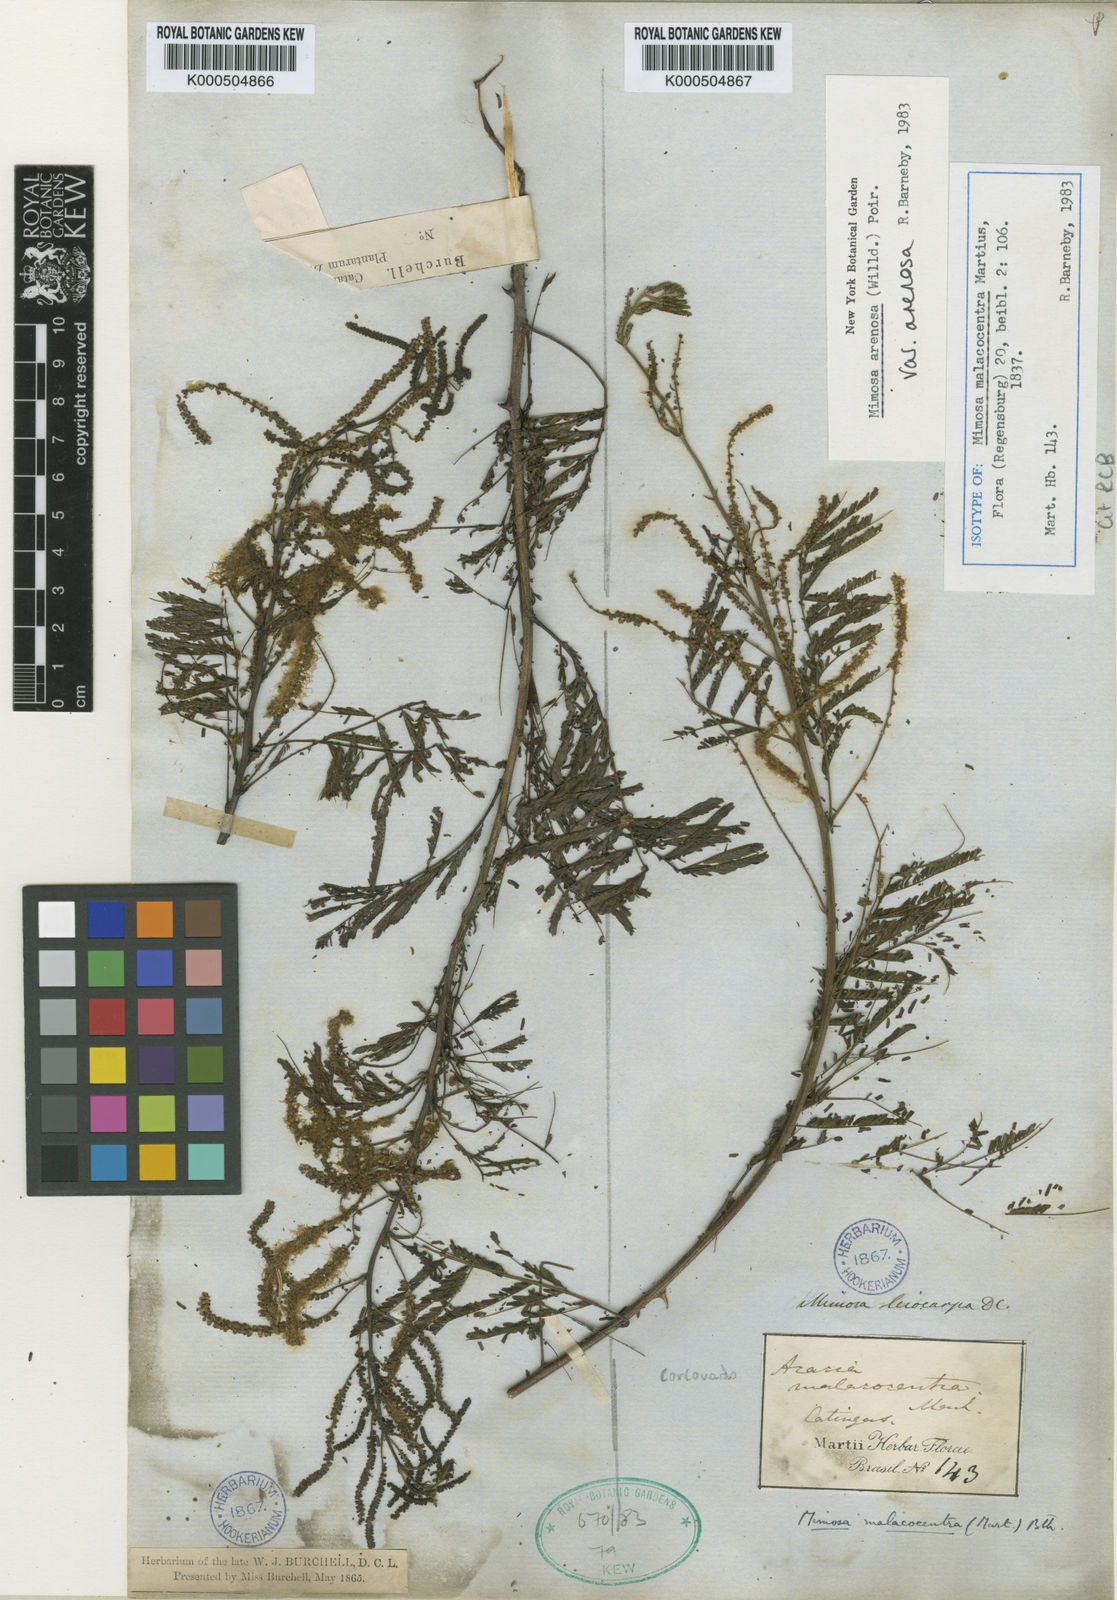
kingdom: Plantae
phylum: Tracheophyta
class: Magnoliopsida
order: Fabales
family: Fabaceae
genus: Mimosa
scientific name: Mimosa arenosa
